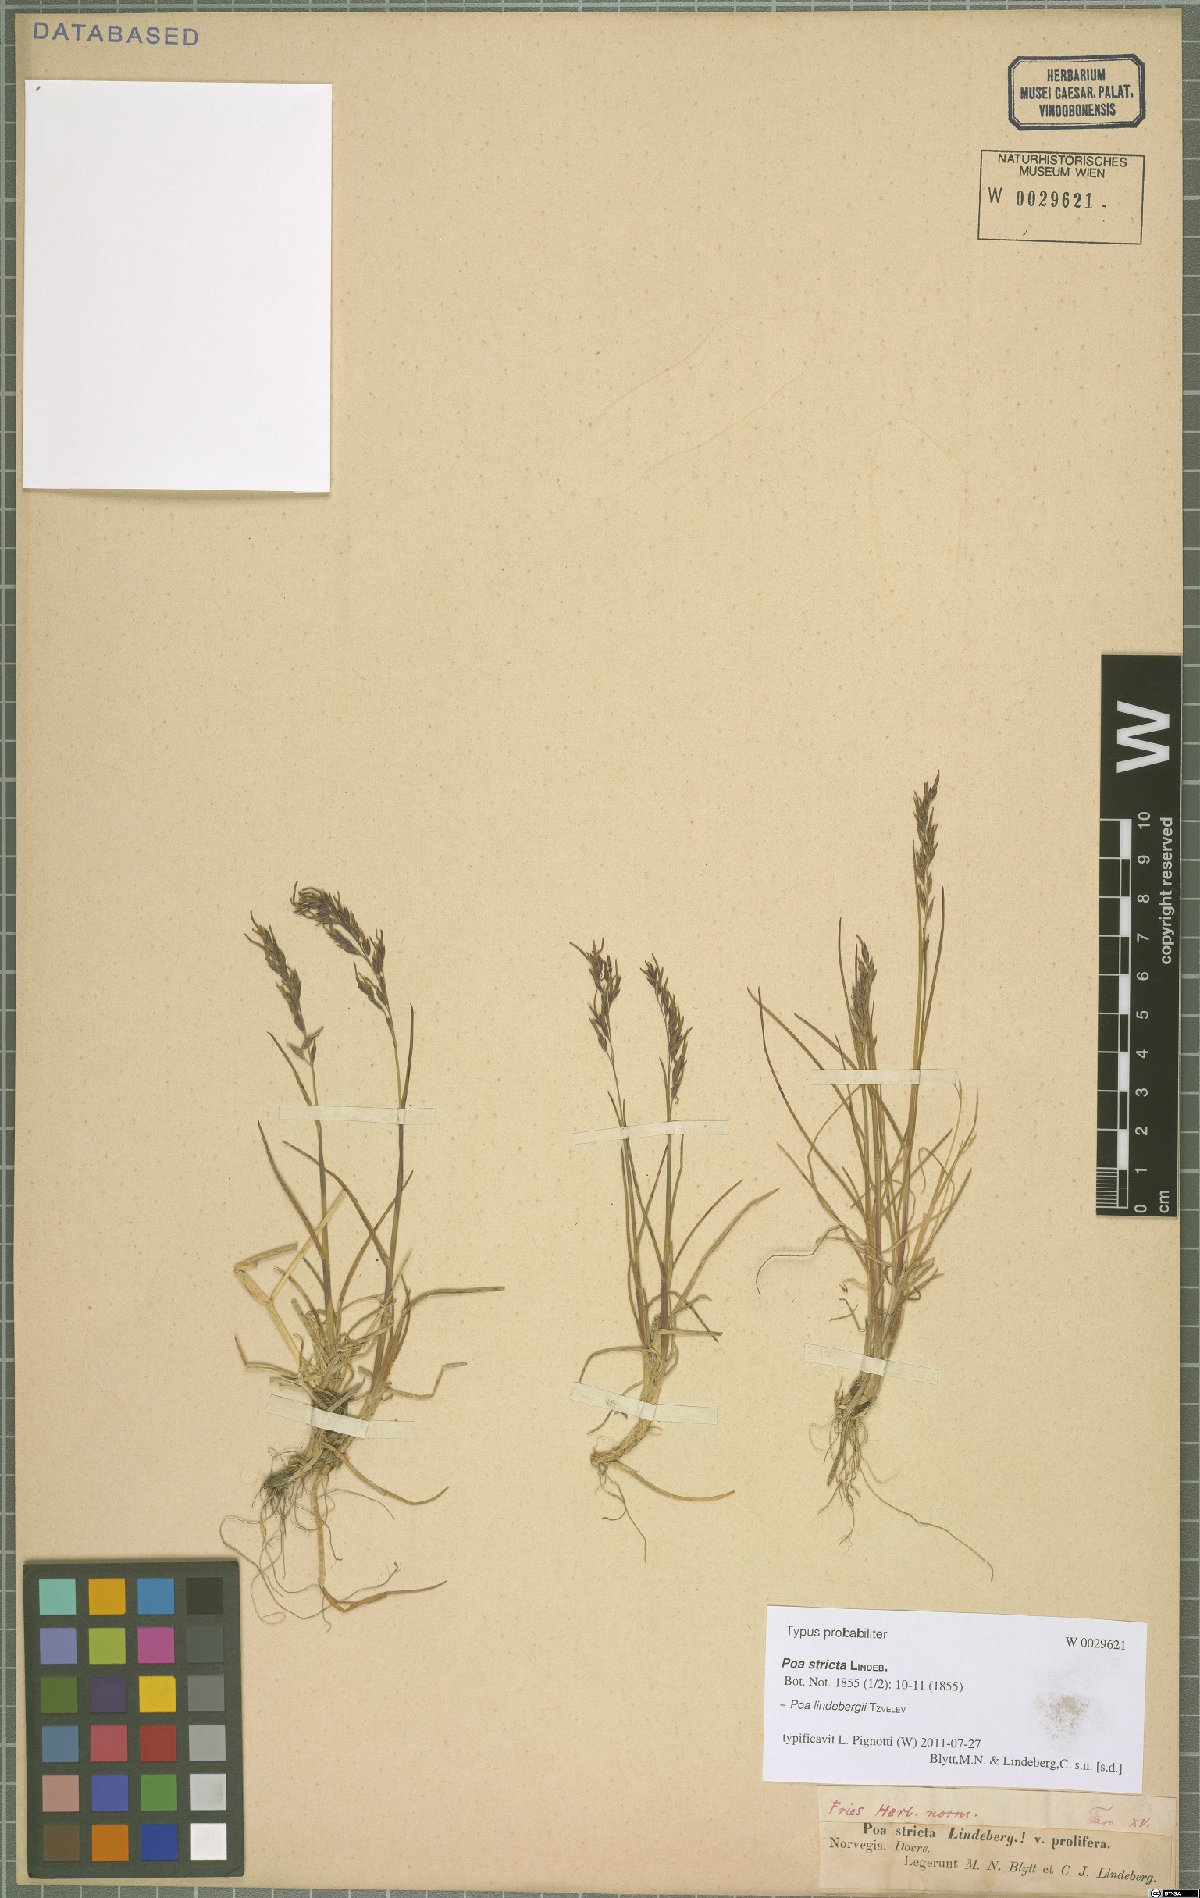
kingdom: Plantae
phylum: Tracheophyta
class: Liliopsida
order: Poales
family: Poaceae
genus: Poa
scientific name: Poa lindebergii
